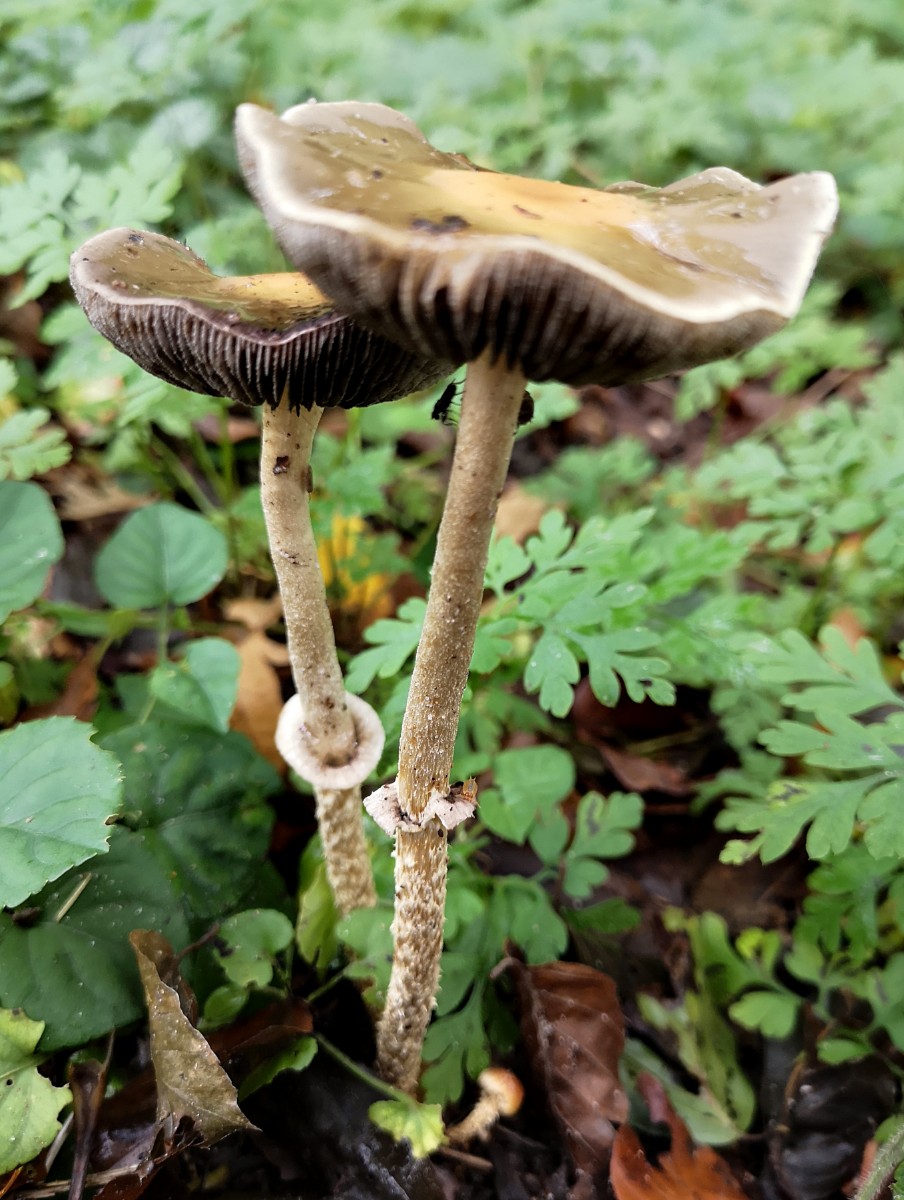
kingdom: Fungi
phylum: Basidiomycota
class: Agaricomycetes
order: Agaricales
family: Strophariaceae
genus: Leratiomyces
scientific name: Leratiomyces squamosus
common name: skællet bredblad
